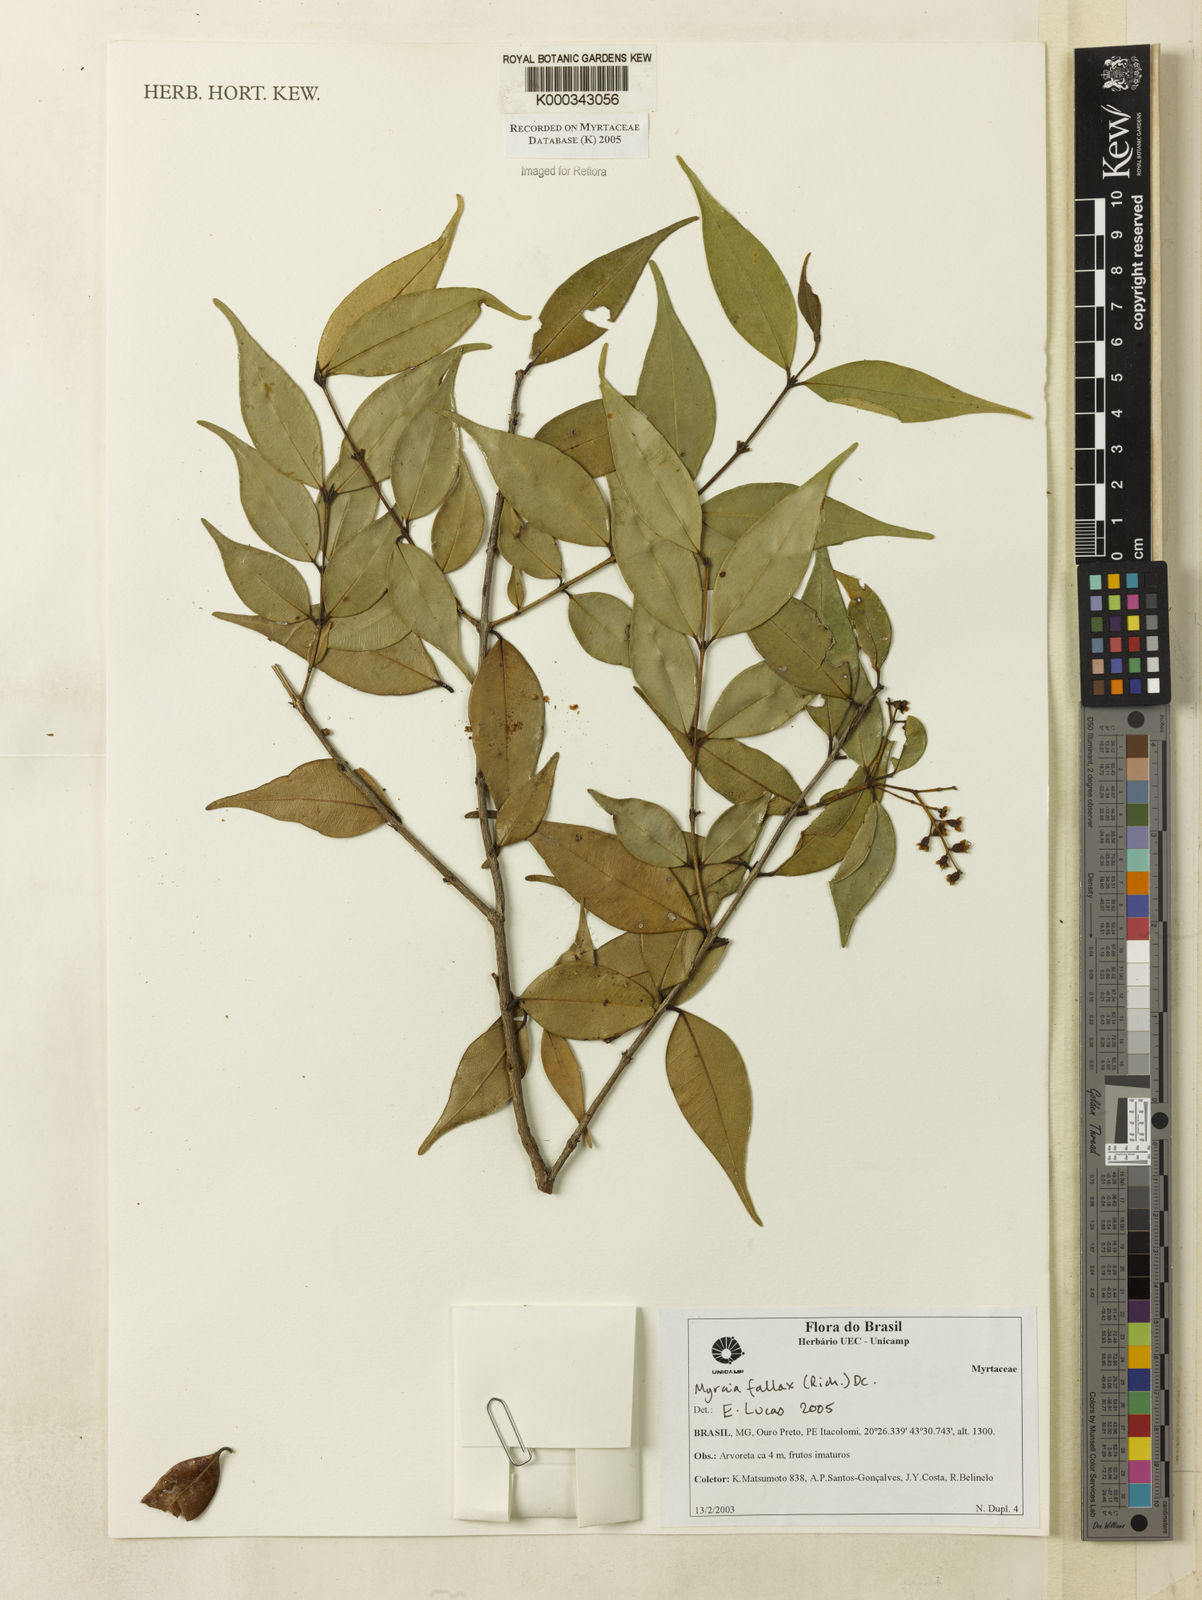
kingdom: Plantae
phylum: Tracheophyta
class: Magnoliopsida
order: Myrtales
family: Myrtaceae
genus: Myrcia
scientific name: Myrcia splendens
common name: Surinam cherry
